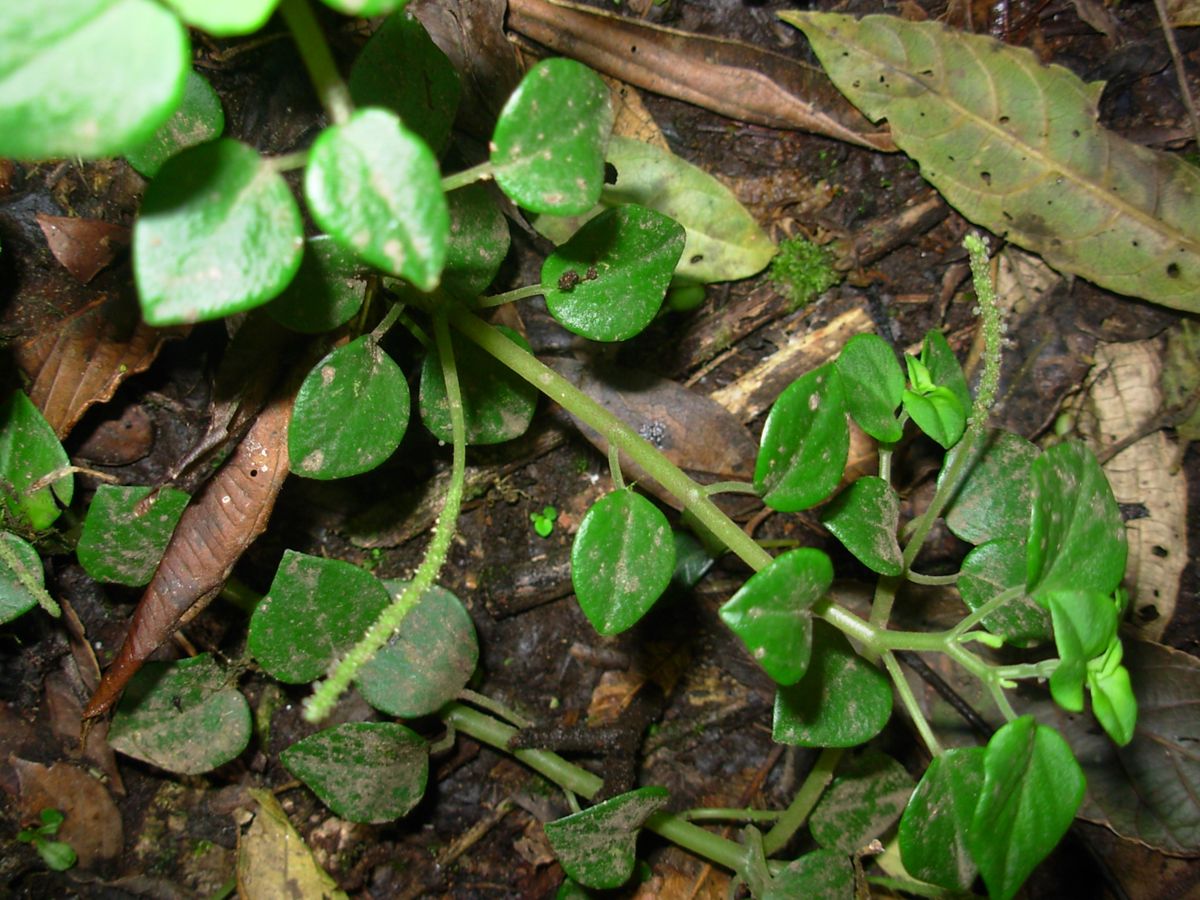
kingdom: Plantae
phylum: Tracheophyta
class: Magnoliopsida
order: Piperales
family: Piperaceae
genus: Peperomia
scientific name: Peperomia
